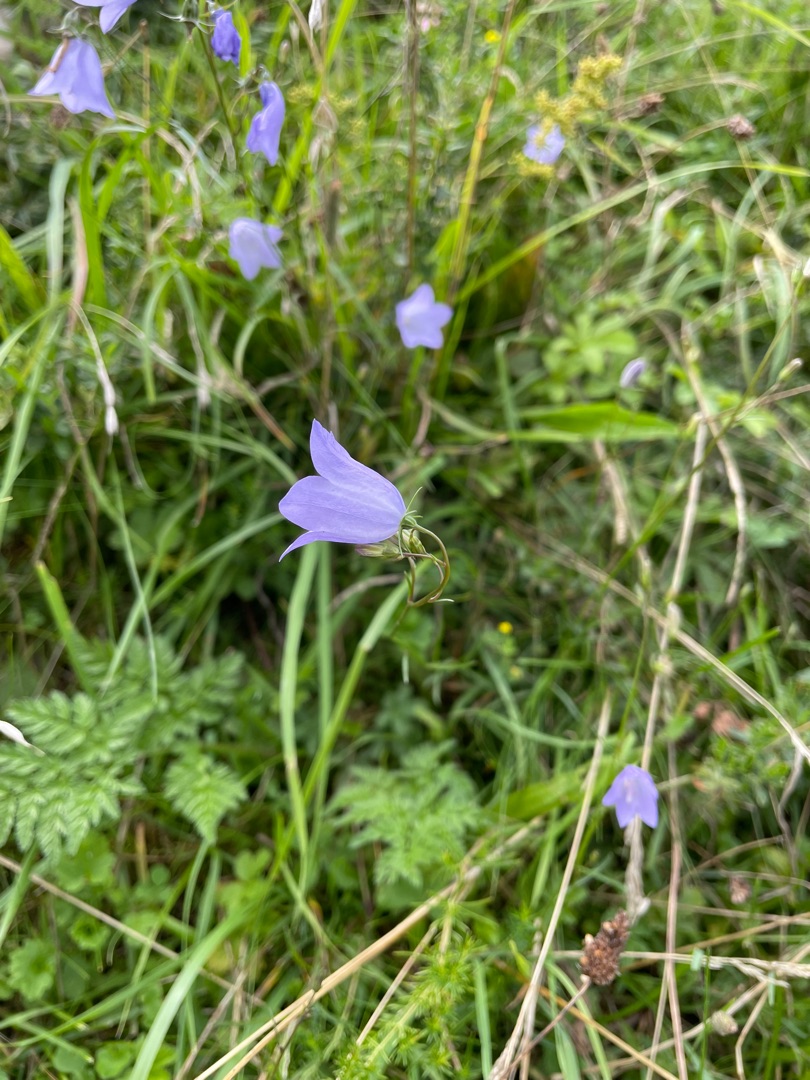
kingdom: Plantae
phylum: Tracheophyta
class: Magnoliopsida
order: Asterales
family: Campanulaceae
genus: Campanula
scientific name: Campanula rotundifolia
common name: Liden klokke
